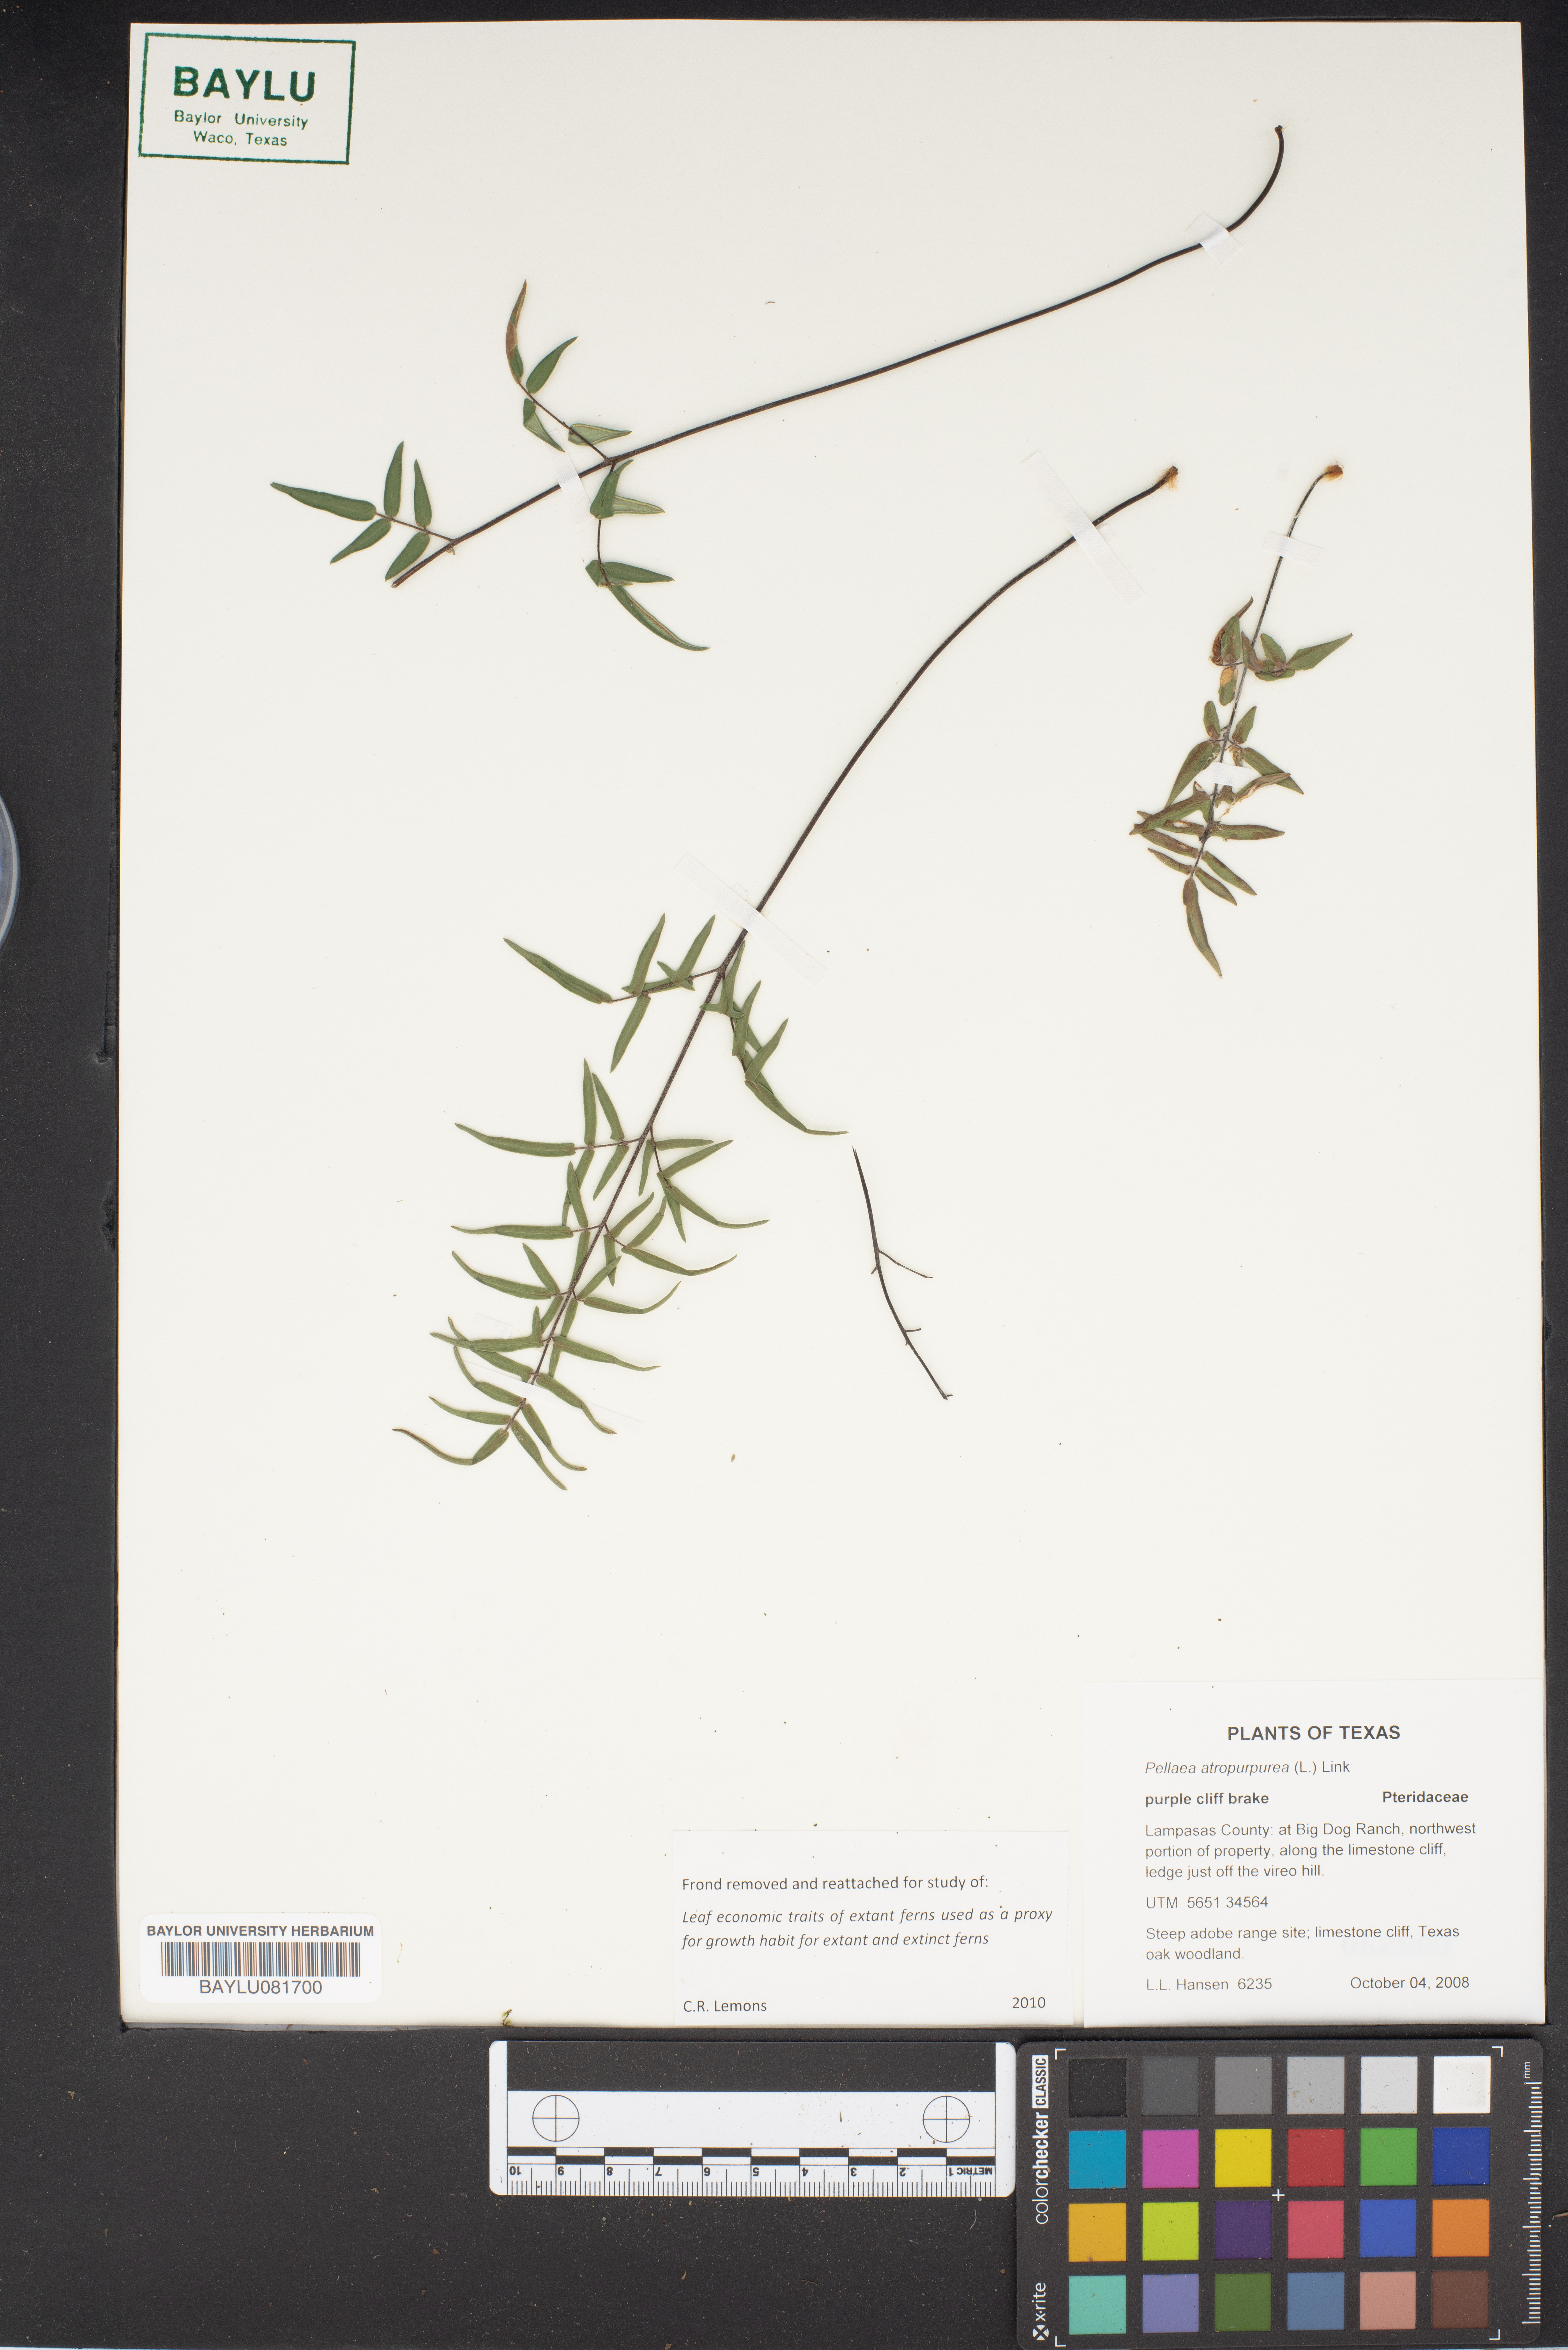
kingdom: Plantae
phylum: Tracheophyta
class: Polypodiopsida
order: Polypodiales
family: Pteridaceae
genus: Pellaea
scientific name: Pellaea atropurpurea
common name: Hairy cliffbrake
